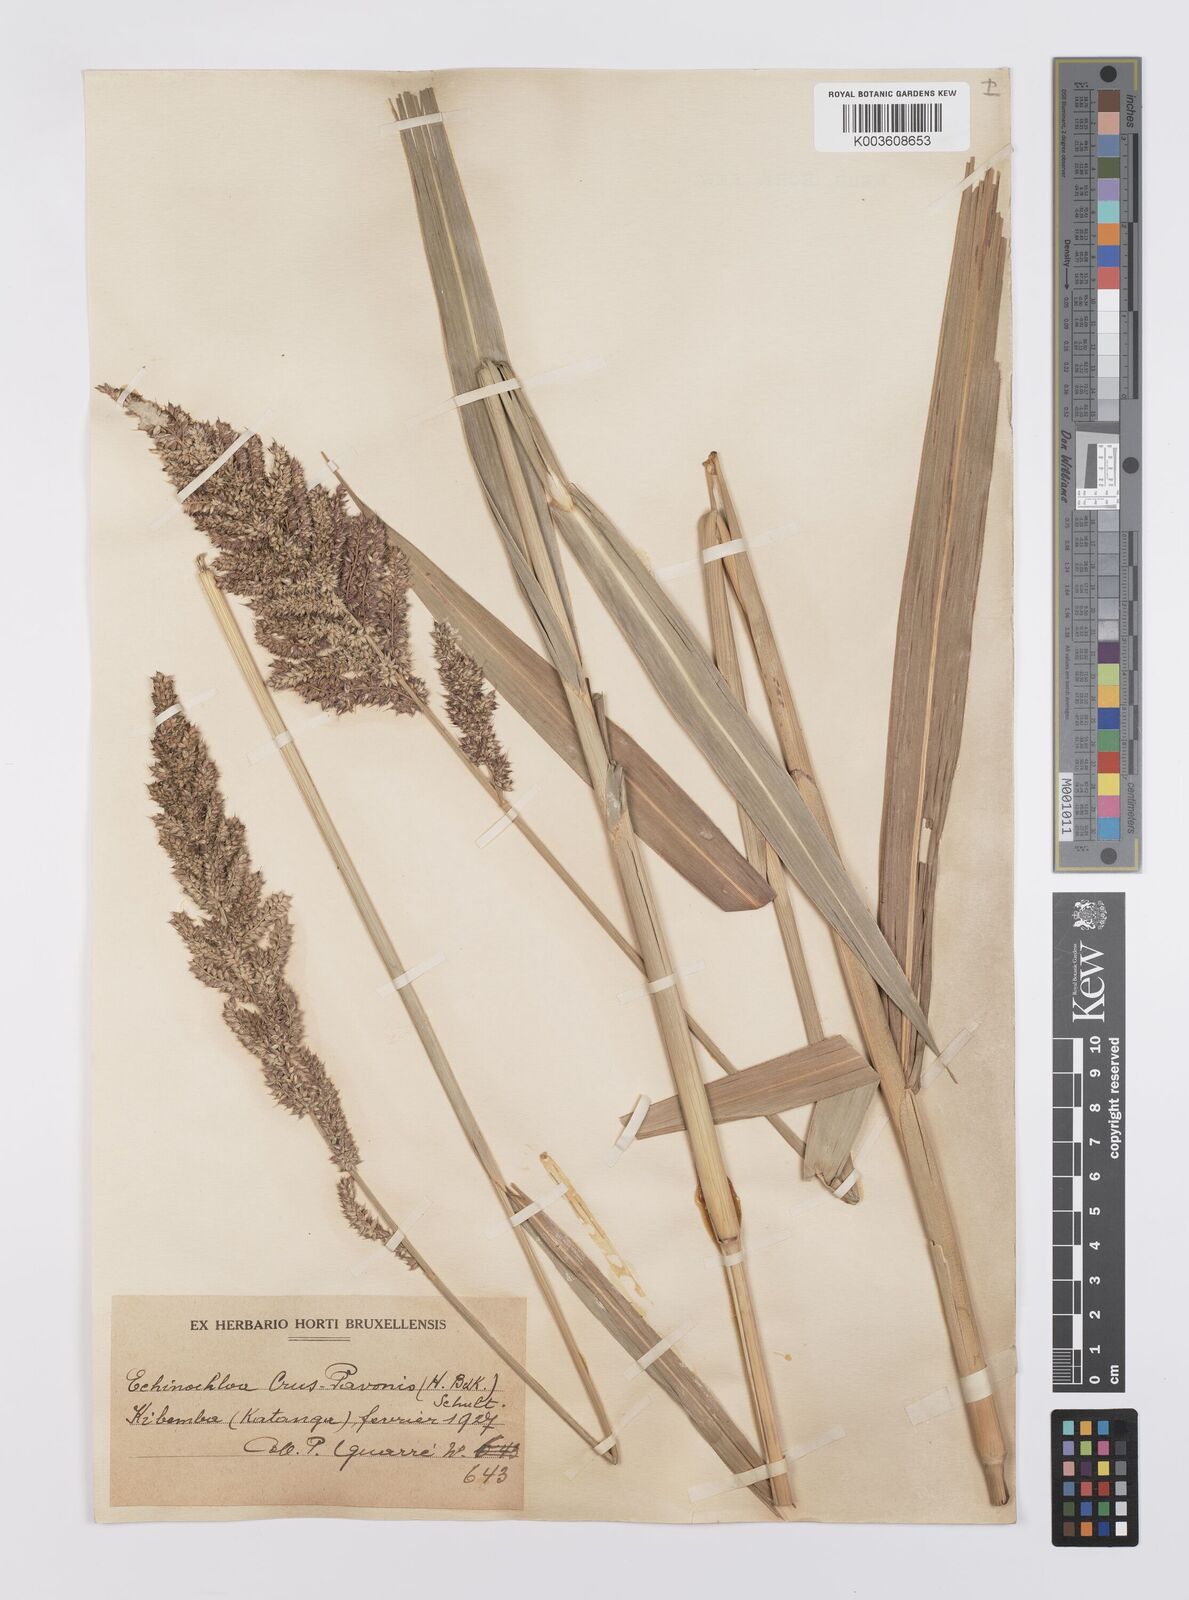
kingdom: Plantae
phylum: Tracheophyta
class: Liliopsida
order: Poales
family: Poaceae
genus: Echinochloa
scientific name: Echinochloa crus-pavonis
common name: Gulf cockspur grass
